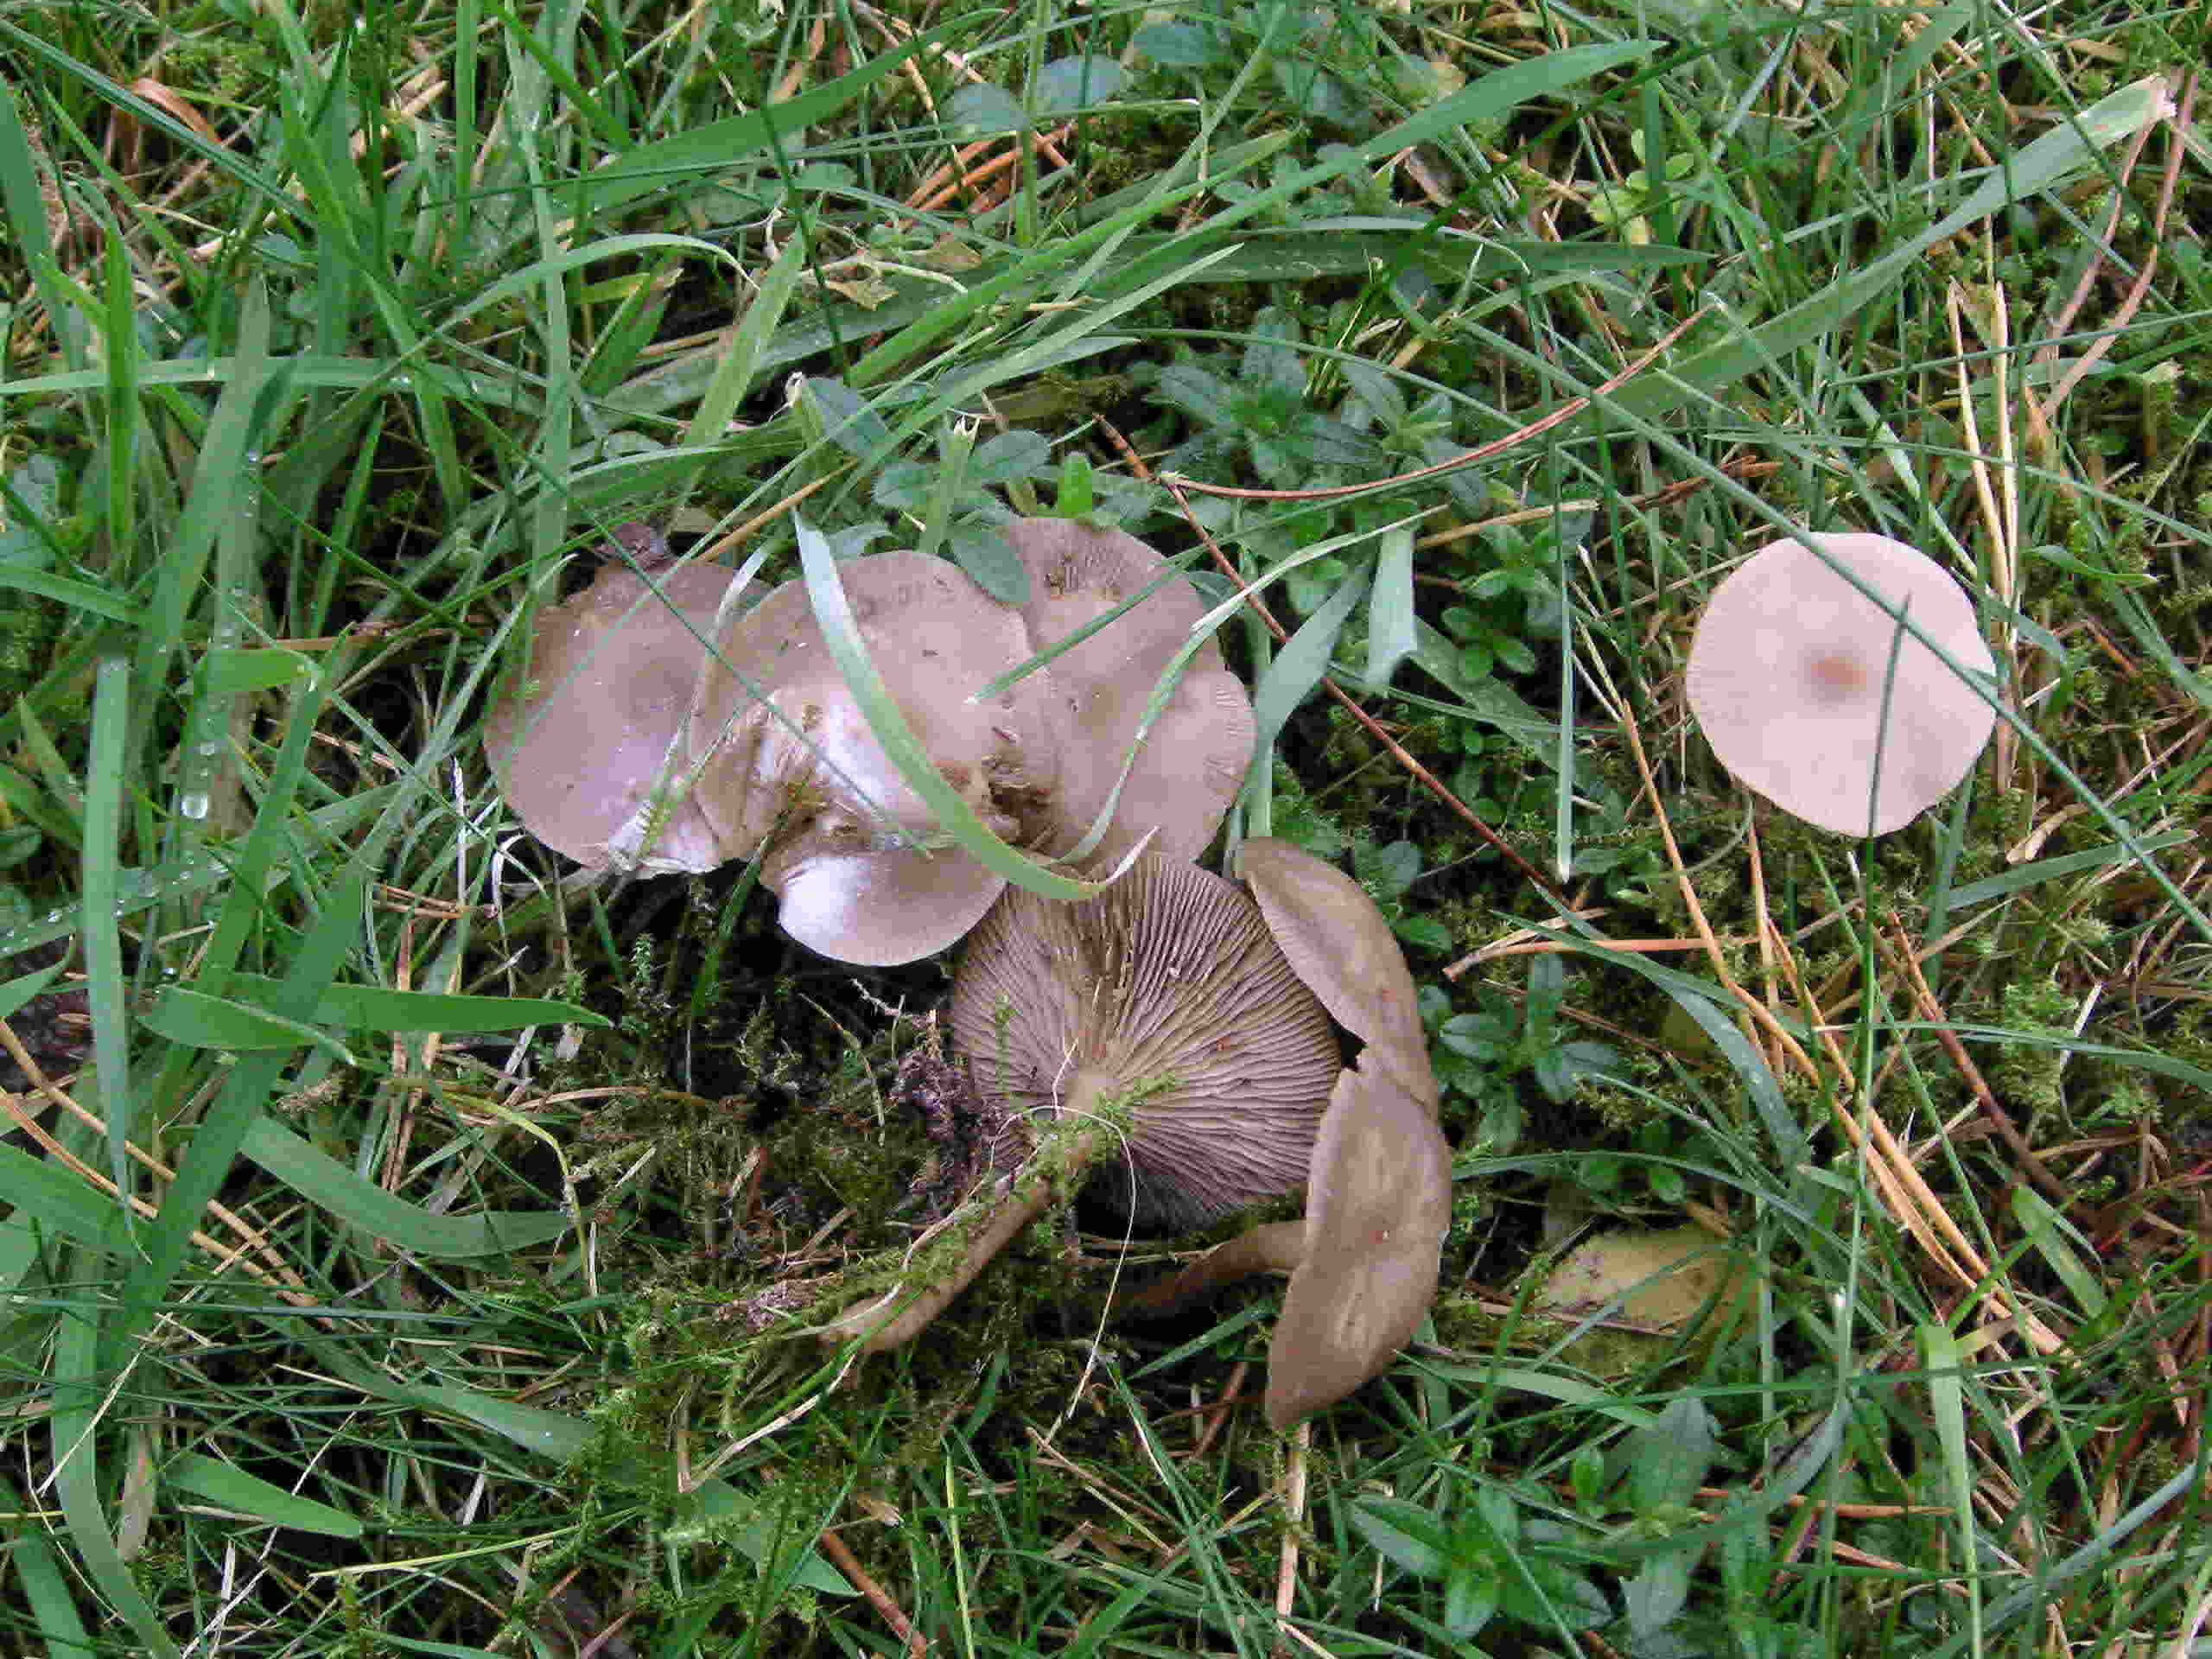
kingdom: Fungi
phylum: Basidiomycota
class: Agaricomycetes
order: Agaricales
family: Tricholomataceae
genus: Clitocybe
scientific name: Clitocybe metachroa
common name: grå tragthat
